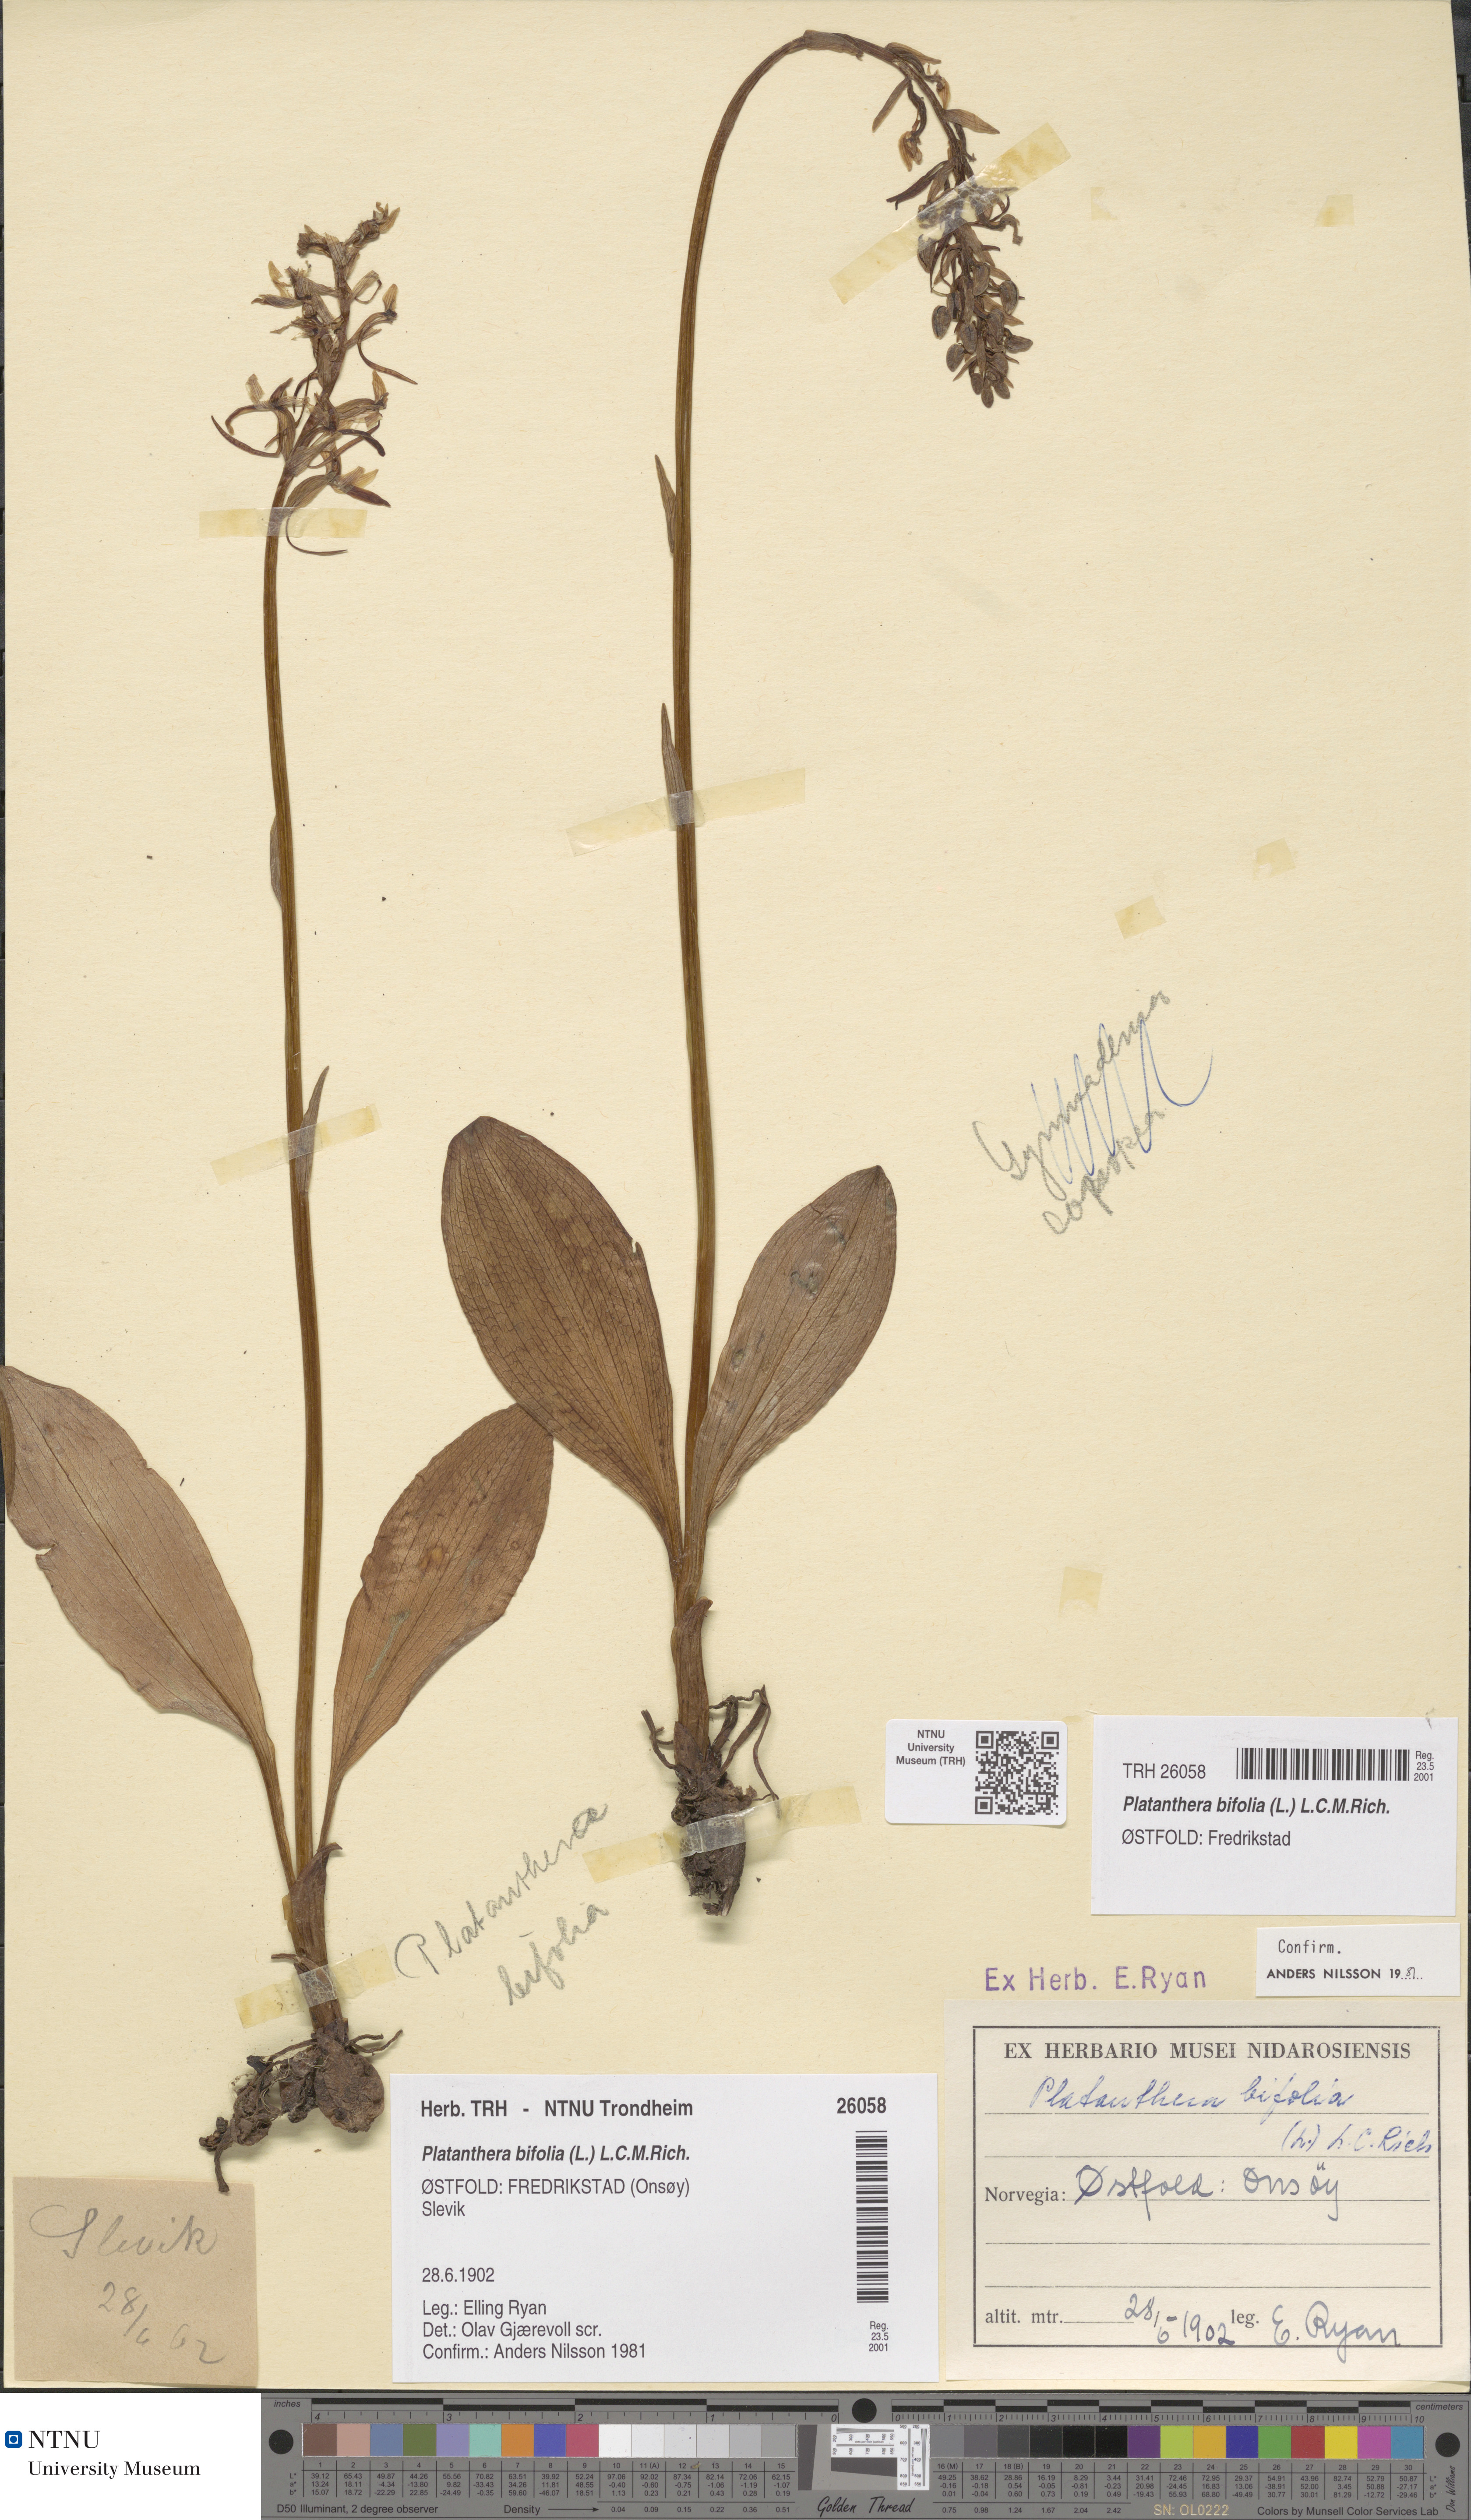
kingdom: Plantae
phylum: Tracheophyta
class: Liliopsida
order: Asparagales
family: Orchidaceae
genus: Platanthera
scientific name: Platanthera bifolia
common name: Lesser butterfly-orchid
